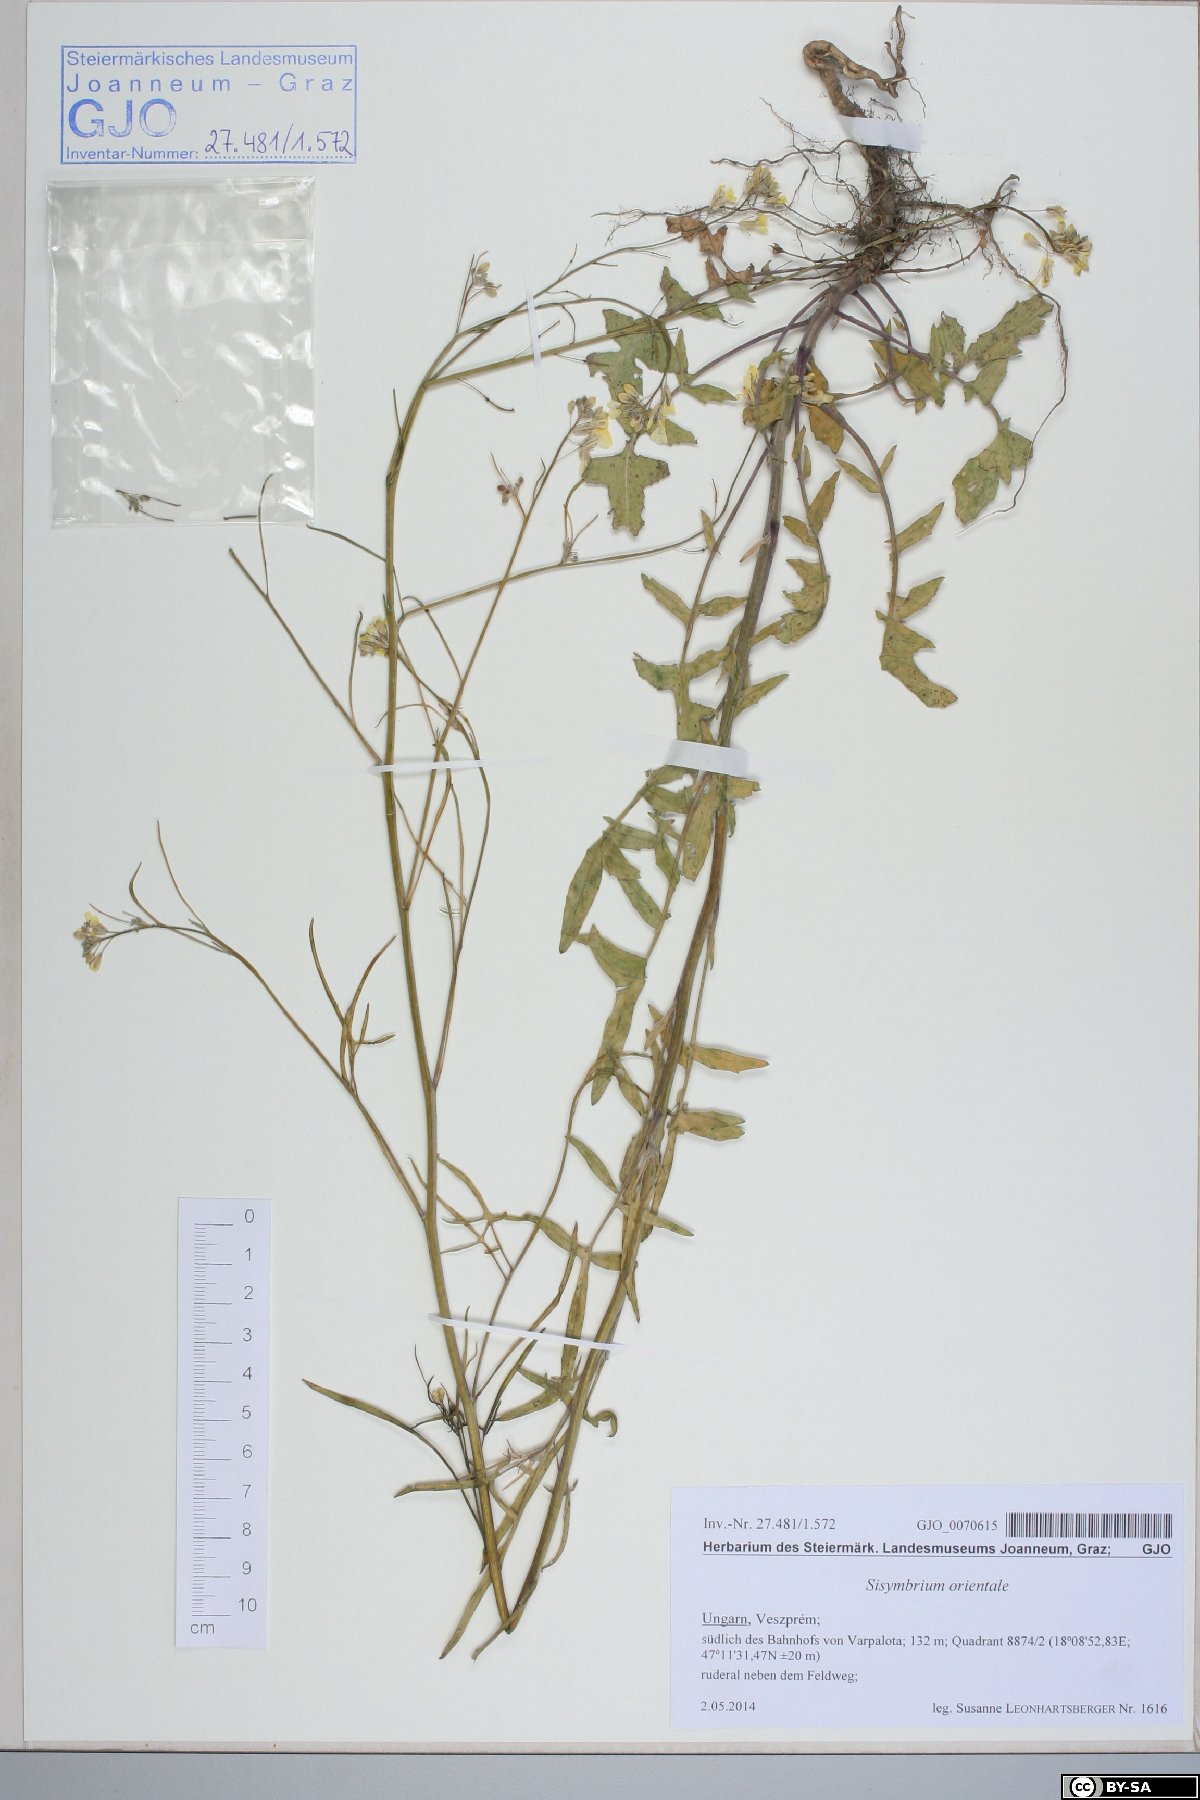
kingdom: Plantae
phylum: Tracheophyta
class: Magnoliopsida
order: Brassicales
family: Brassicaceae
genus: Sisymbrium
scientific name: Sisymbrium orientale
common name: Eastern rocket
